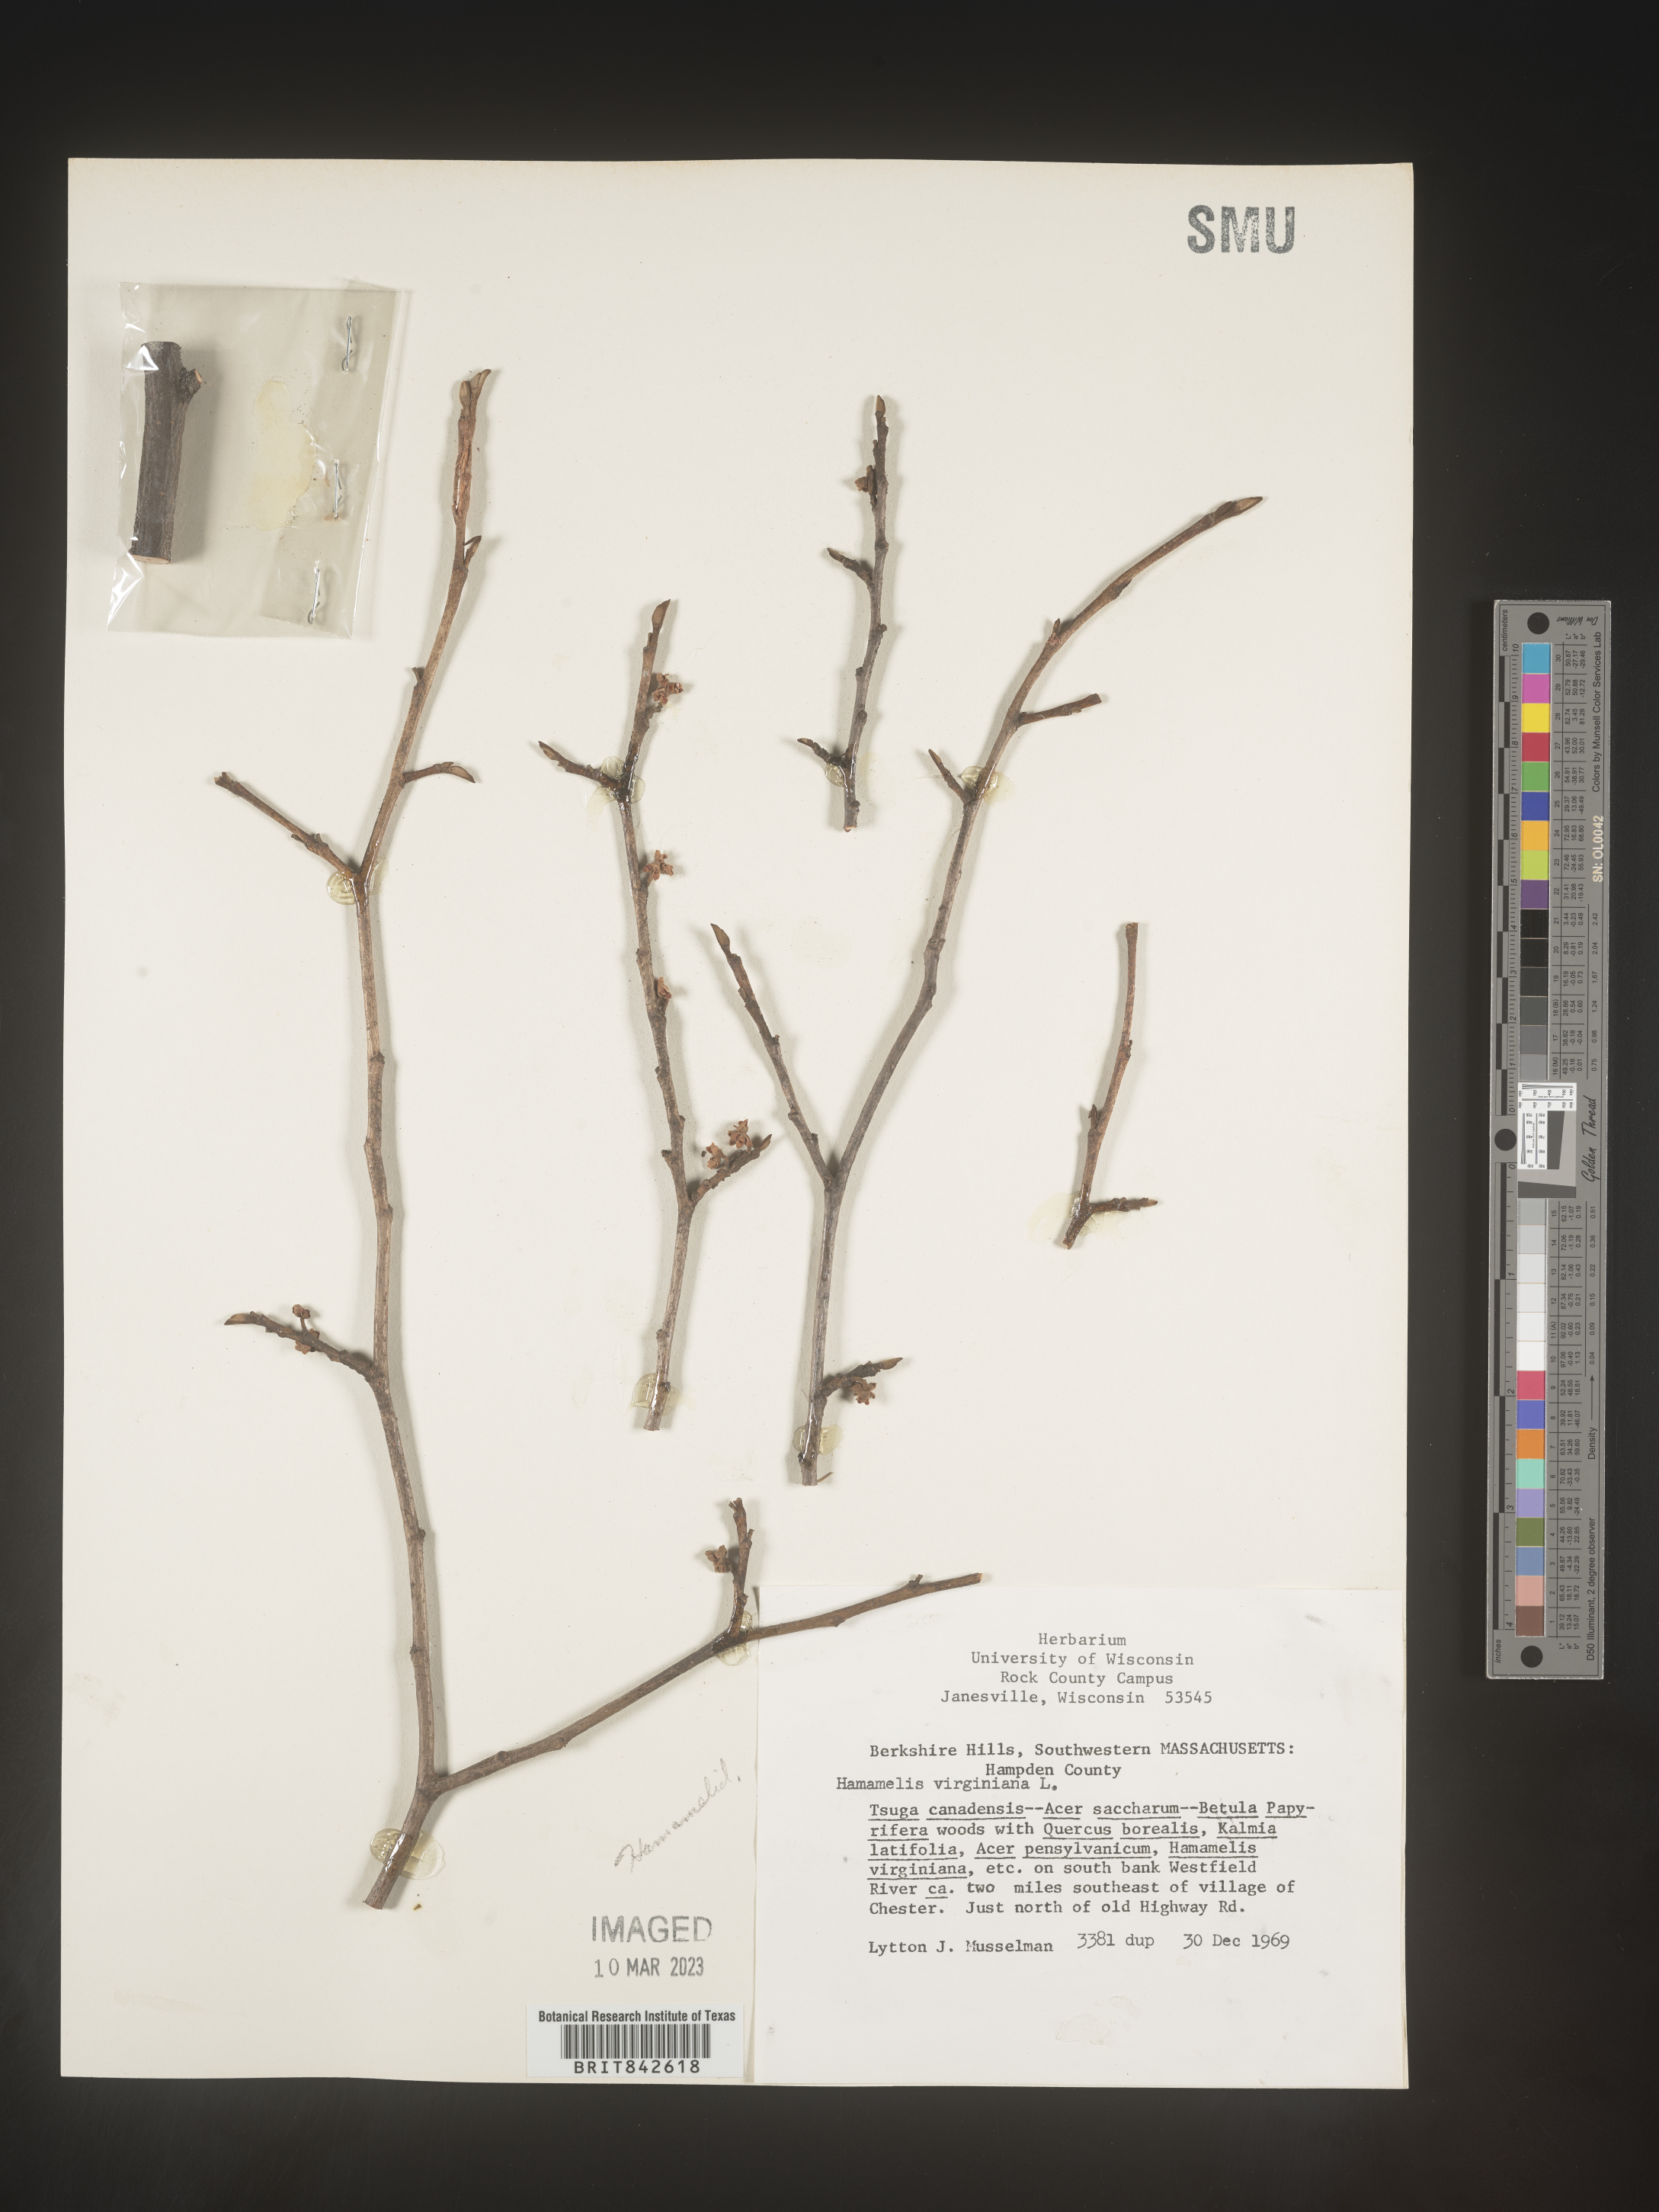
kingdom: Plantae
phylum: Tracheophyta
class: Magnoliopsida
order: Saxifragales
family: Hamamelidaceae
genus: Hamamelis
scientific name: Hamamelis
